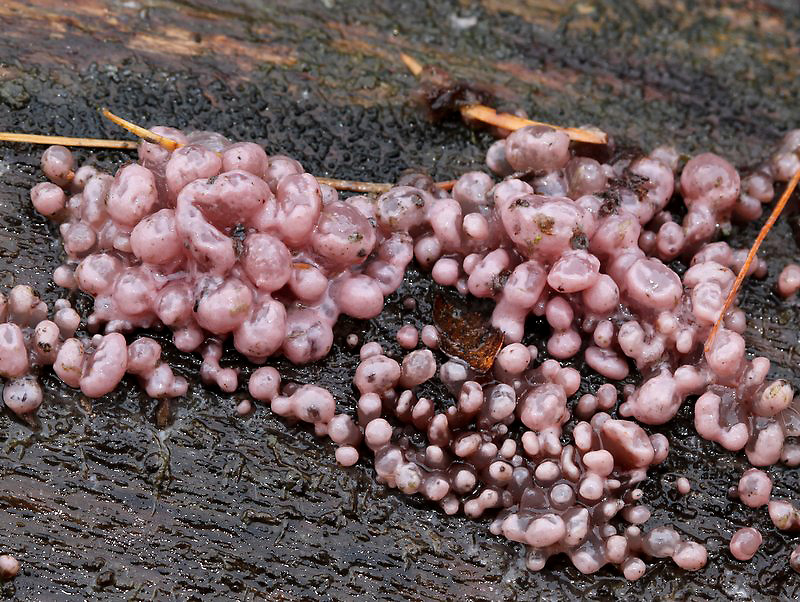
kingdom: Fungi
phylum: Ascomycota
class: Leotiomycetes
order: Helotiales
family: Gelatinodiscaceae
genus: Ascocoryne
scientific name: Ascocoryne sarcoides
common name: rødlilla sejskive
